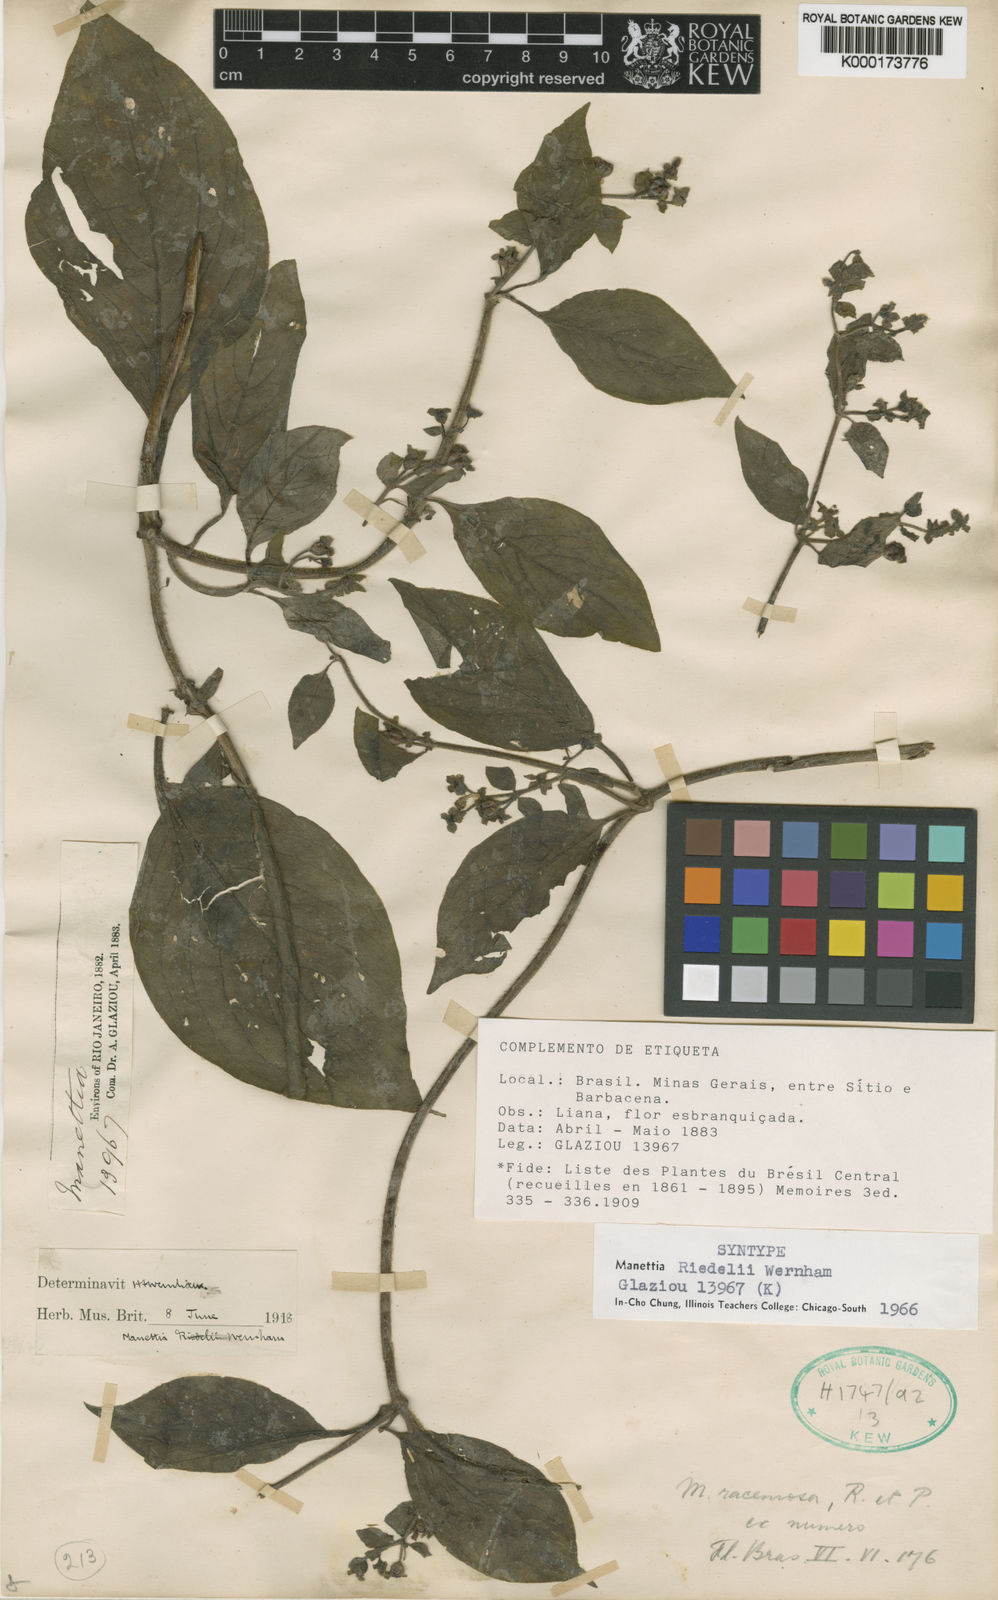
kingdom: Plantae
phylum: Tracheophyta
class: Magnoliopsida
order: Gentianales
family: Rubiaceae
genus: Manettia
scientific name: Manettia riedelii
